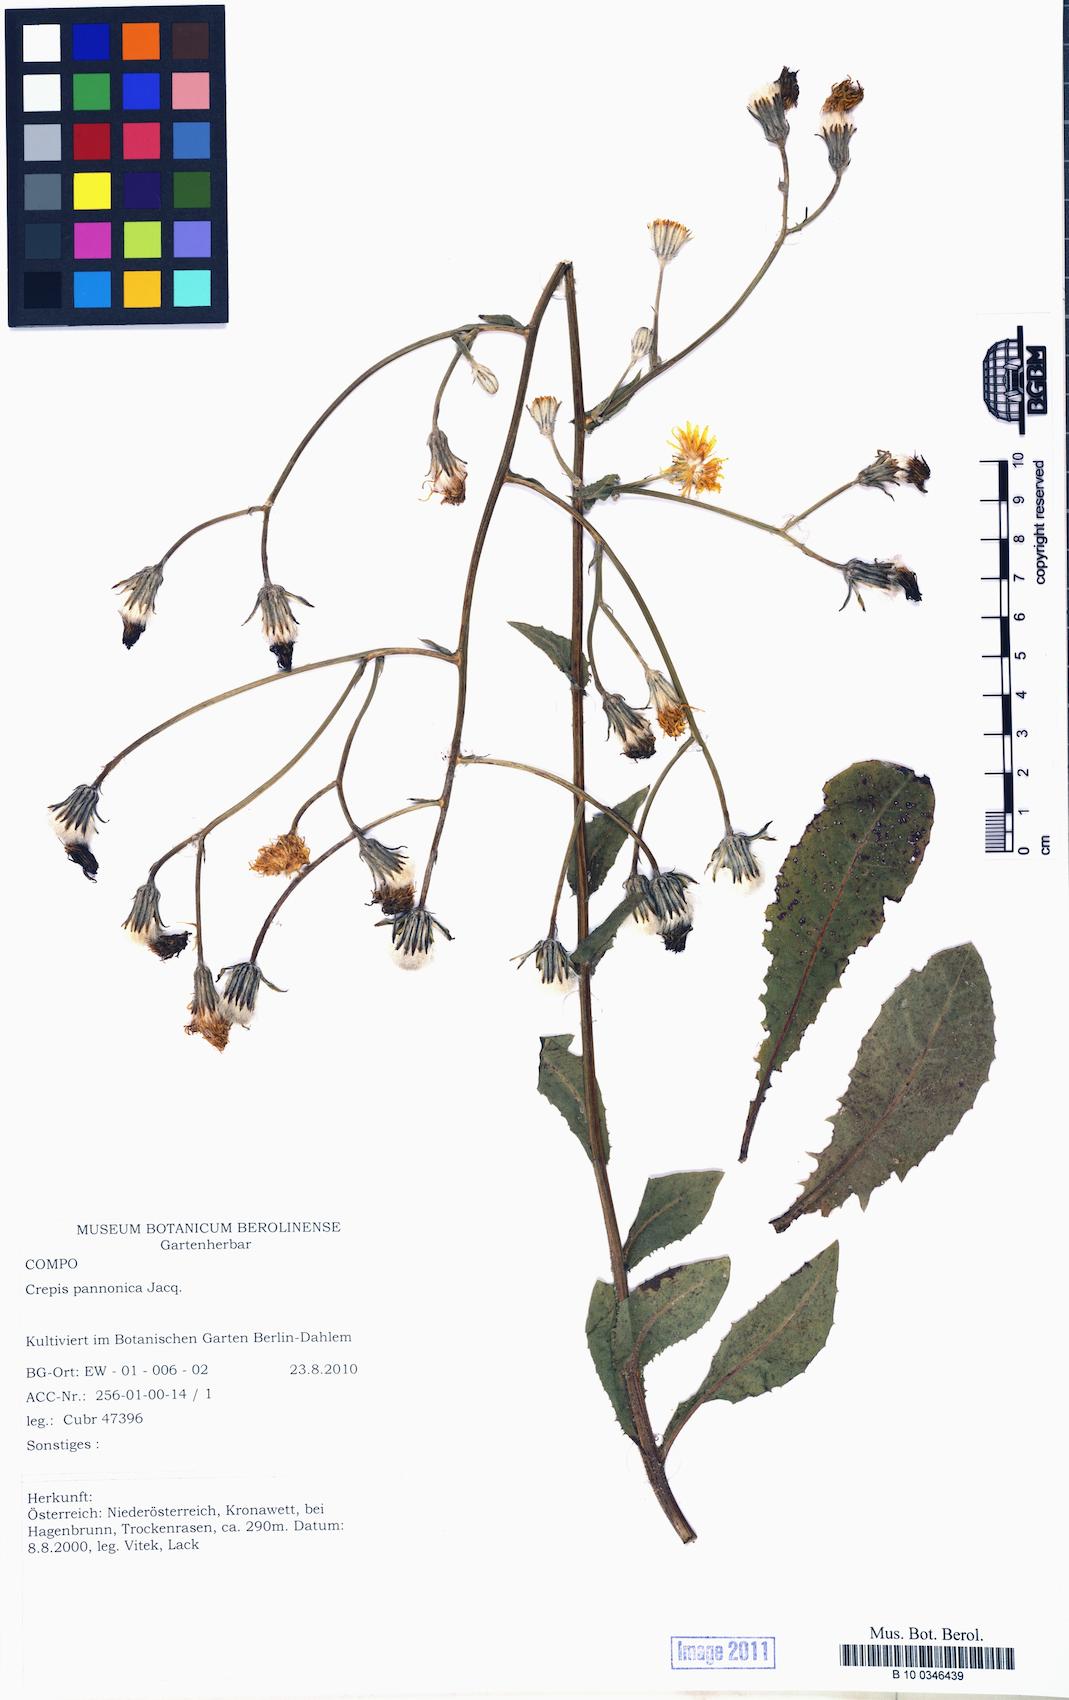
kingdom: Plantae
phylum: Tracheophyta
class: Magnoliopsida
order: Asterales
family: Asteraceae
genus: Crepis
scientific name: Crepis pannonica
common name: Pasture hawksbeard
